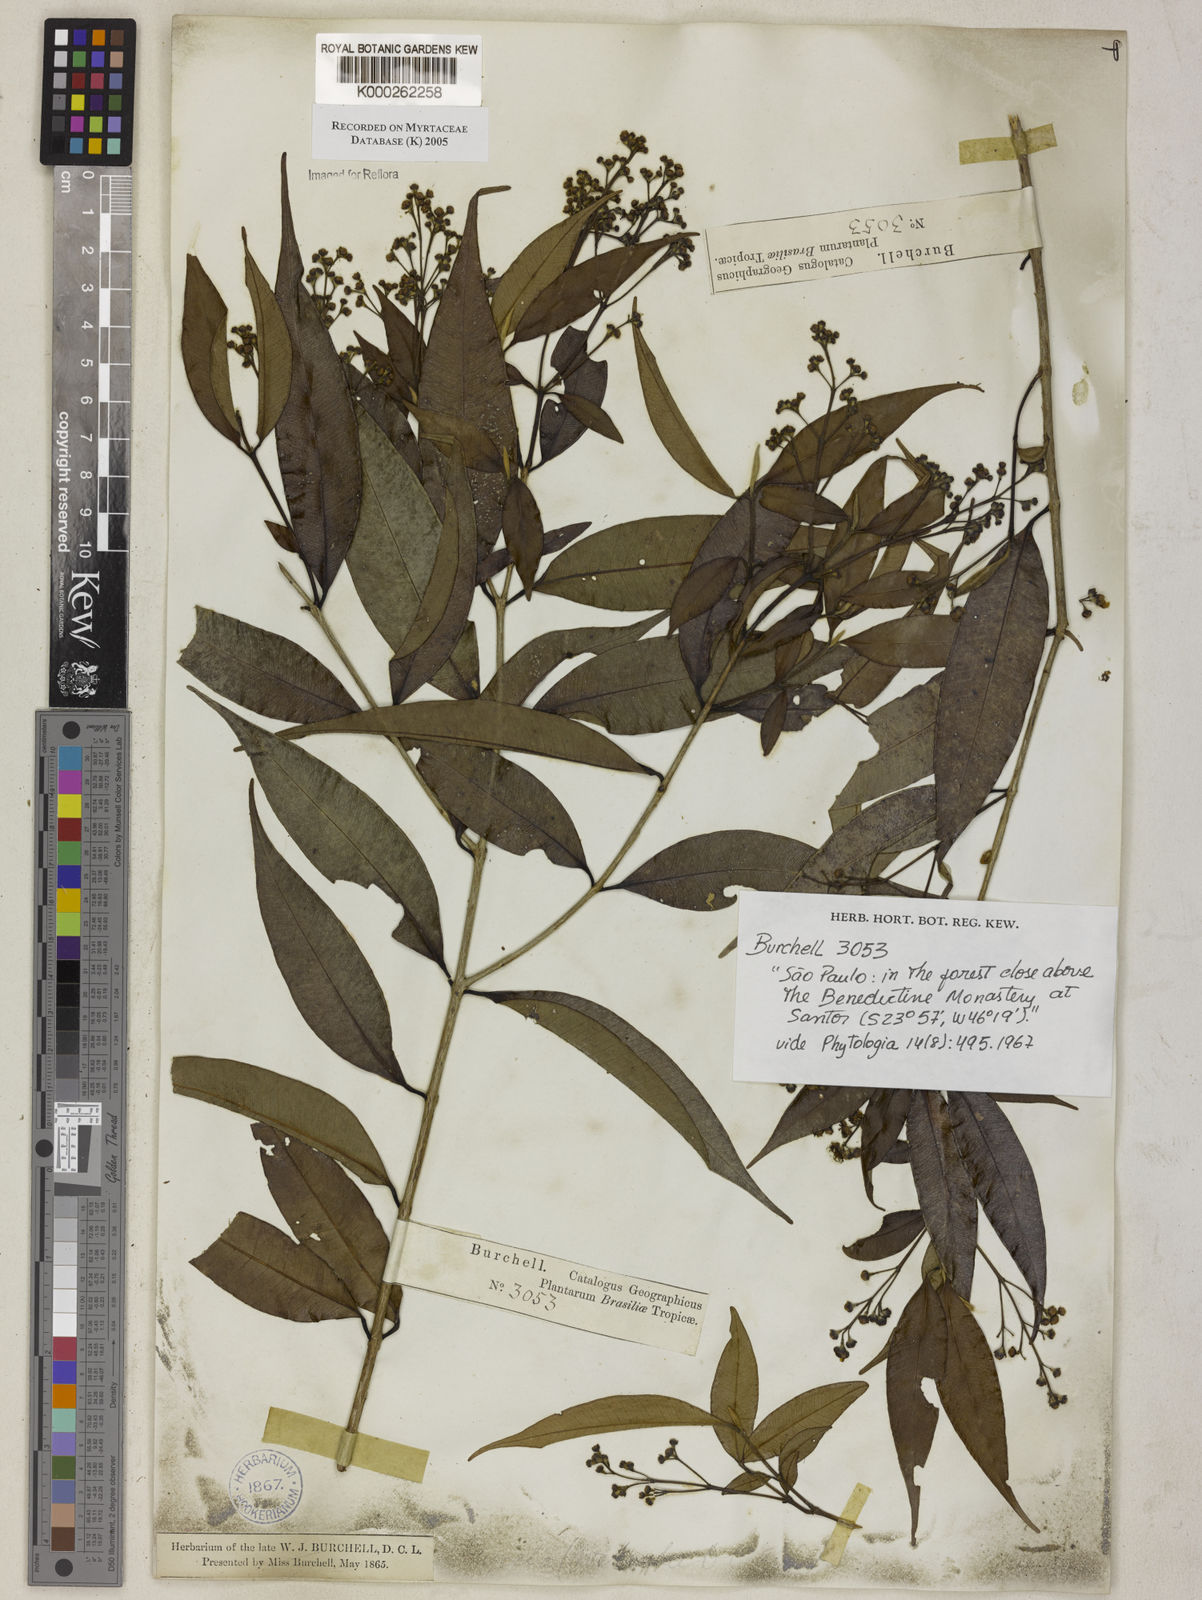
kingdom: Plantae
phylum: Tracheophyta
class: Magnoliopsida
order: Myrtales
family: Myrtaceae
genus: Myrcia
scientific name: Myrcia splendens
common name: Surinam cherry
